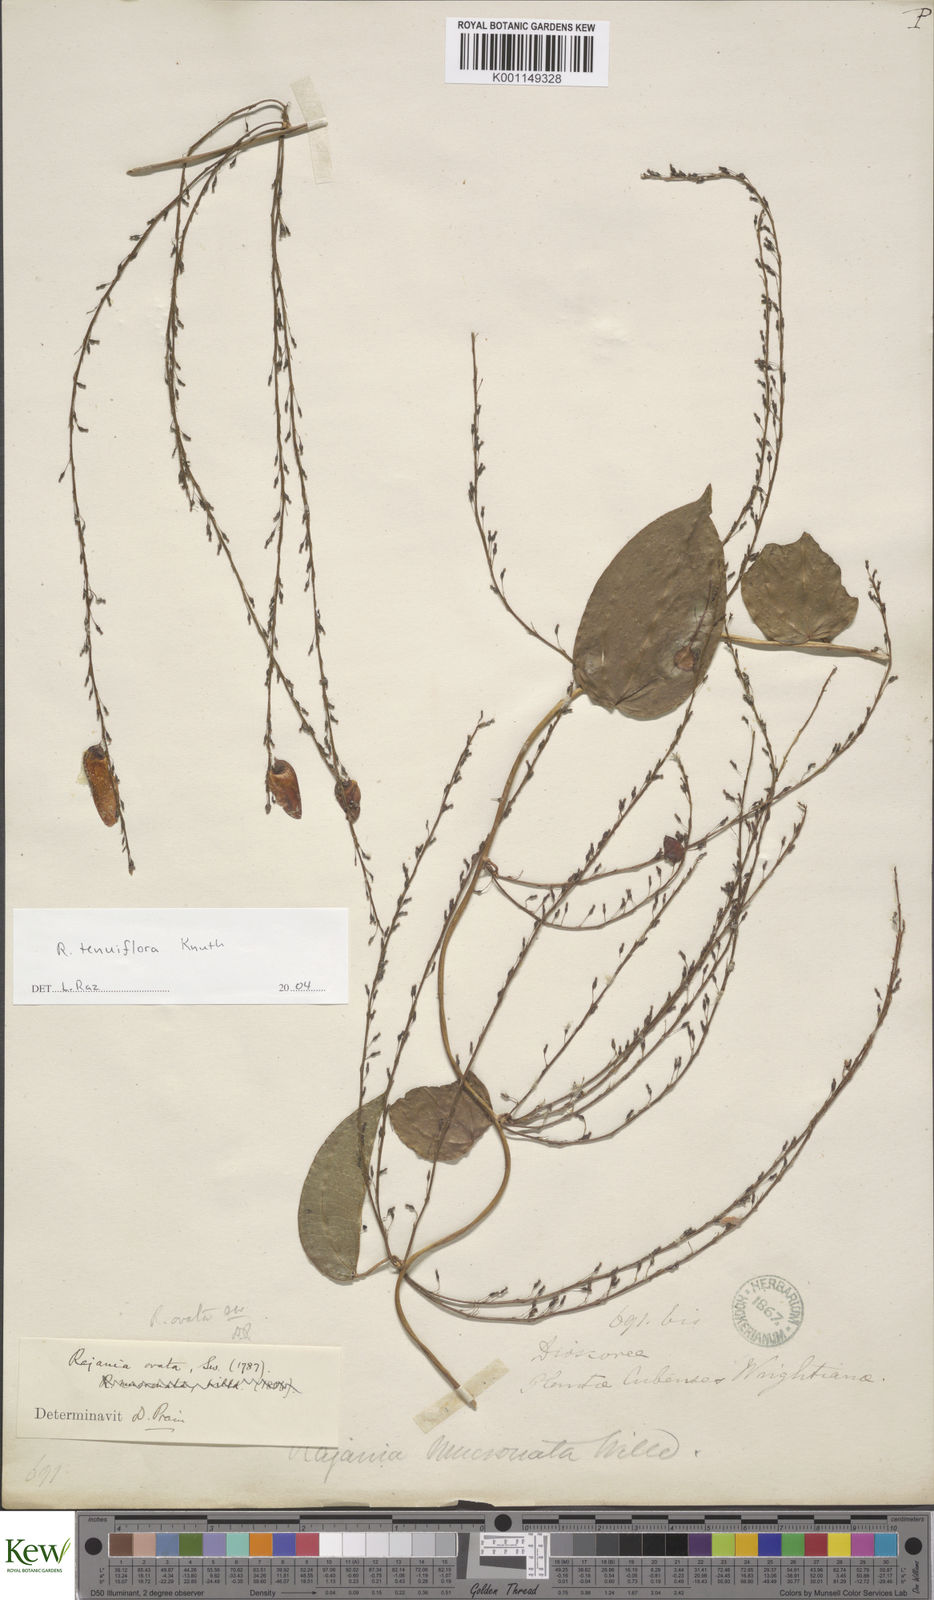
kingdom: Plantae
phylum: Tracheophyta
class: Liliopsida
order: Dioscoreales
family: Dioscoreaceae
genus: Dioscorea
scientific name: Dioscorea bulbifera
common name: Air yam
